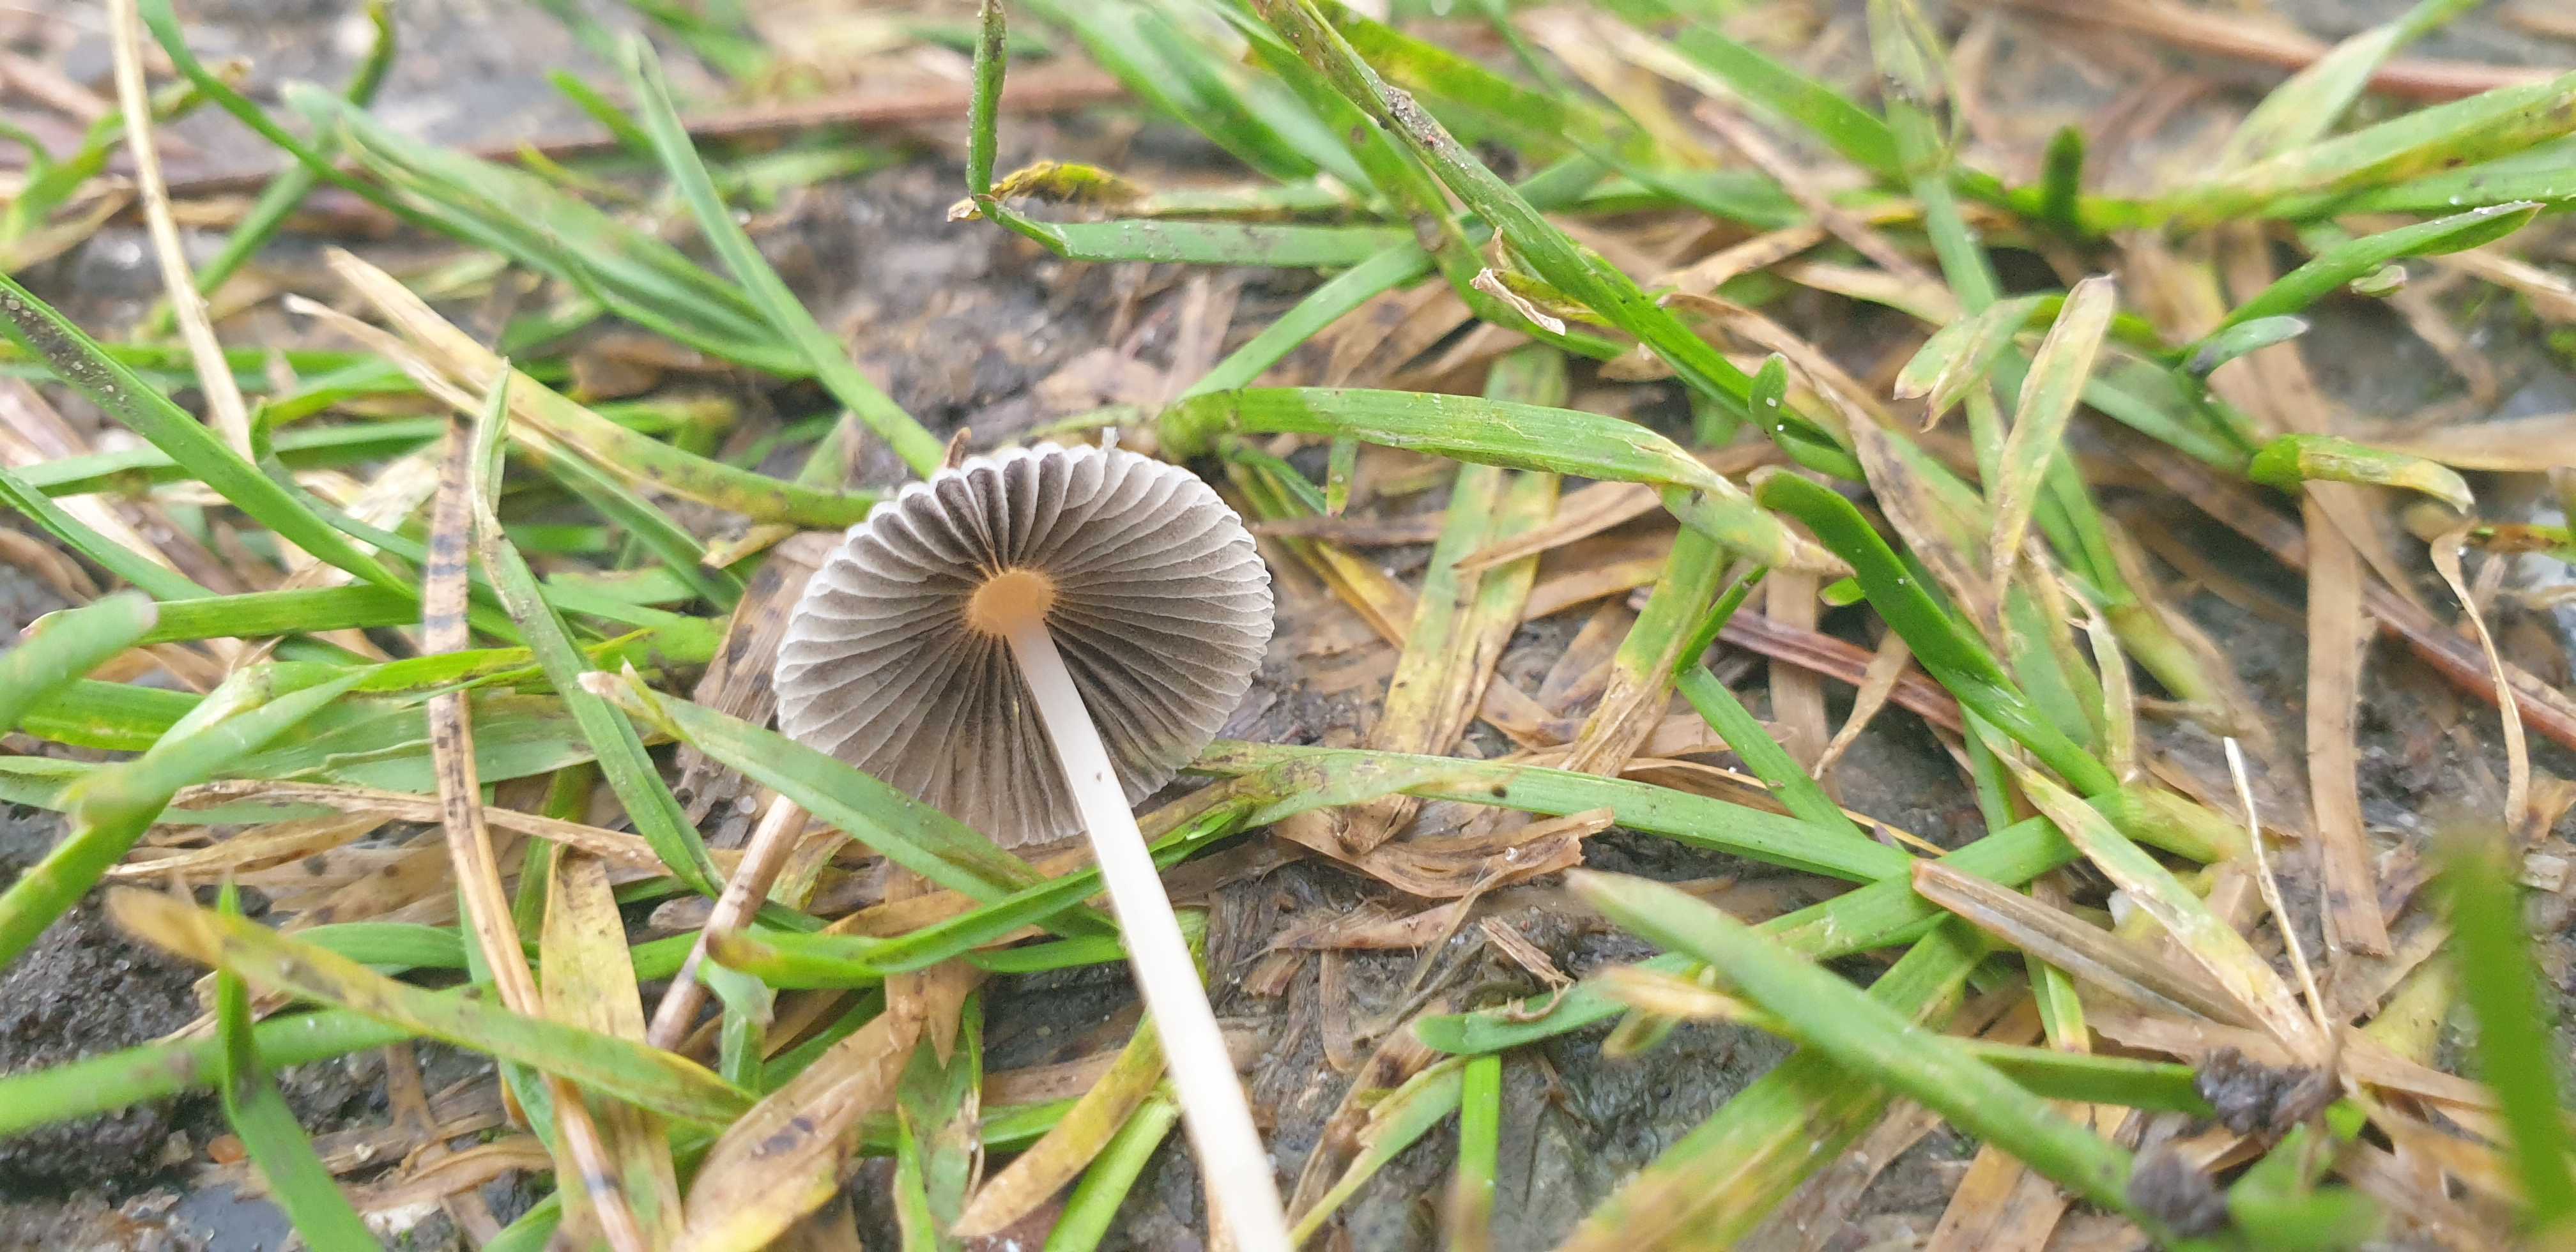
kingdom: Fungi
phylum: Basidiomycota
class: Agaricomycetes
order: Agaricales
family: Psathyrellaceae
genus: Parasola
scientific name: Parasola
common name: hjulhat
